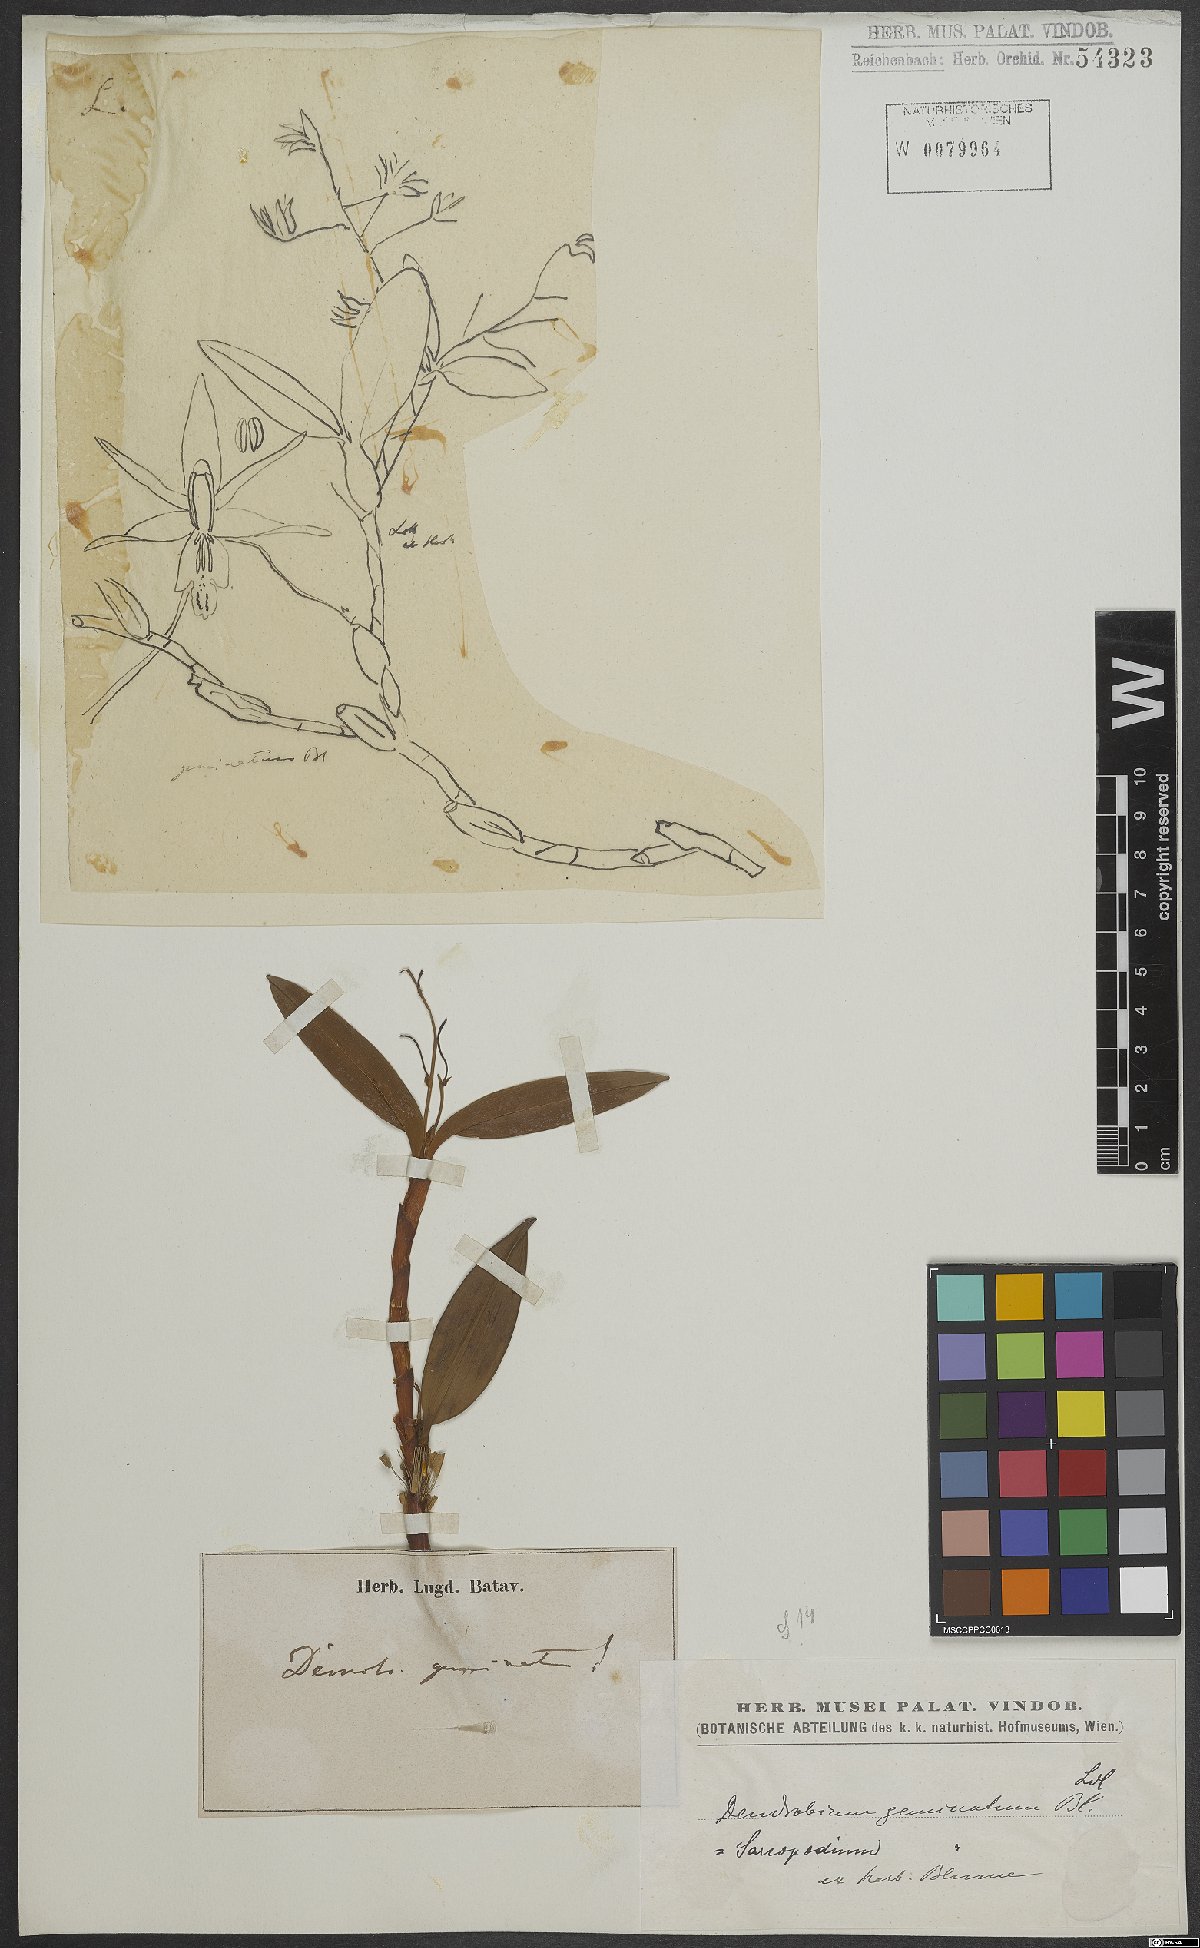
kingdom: Plantae
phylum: Tracheophyta
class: Liliopsida
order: Asparagales
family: Orchidaceae
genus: Dendrobium
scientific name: Dendrobium geminatum
